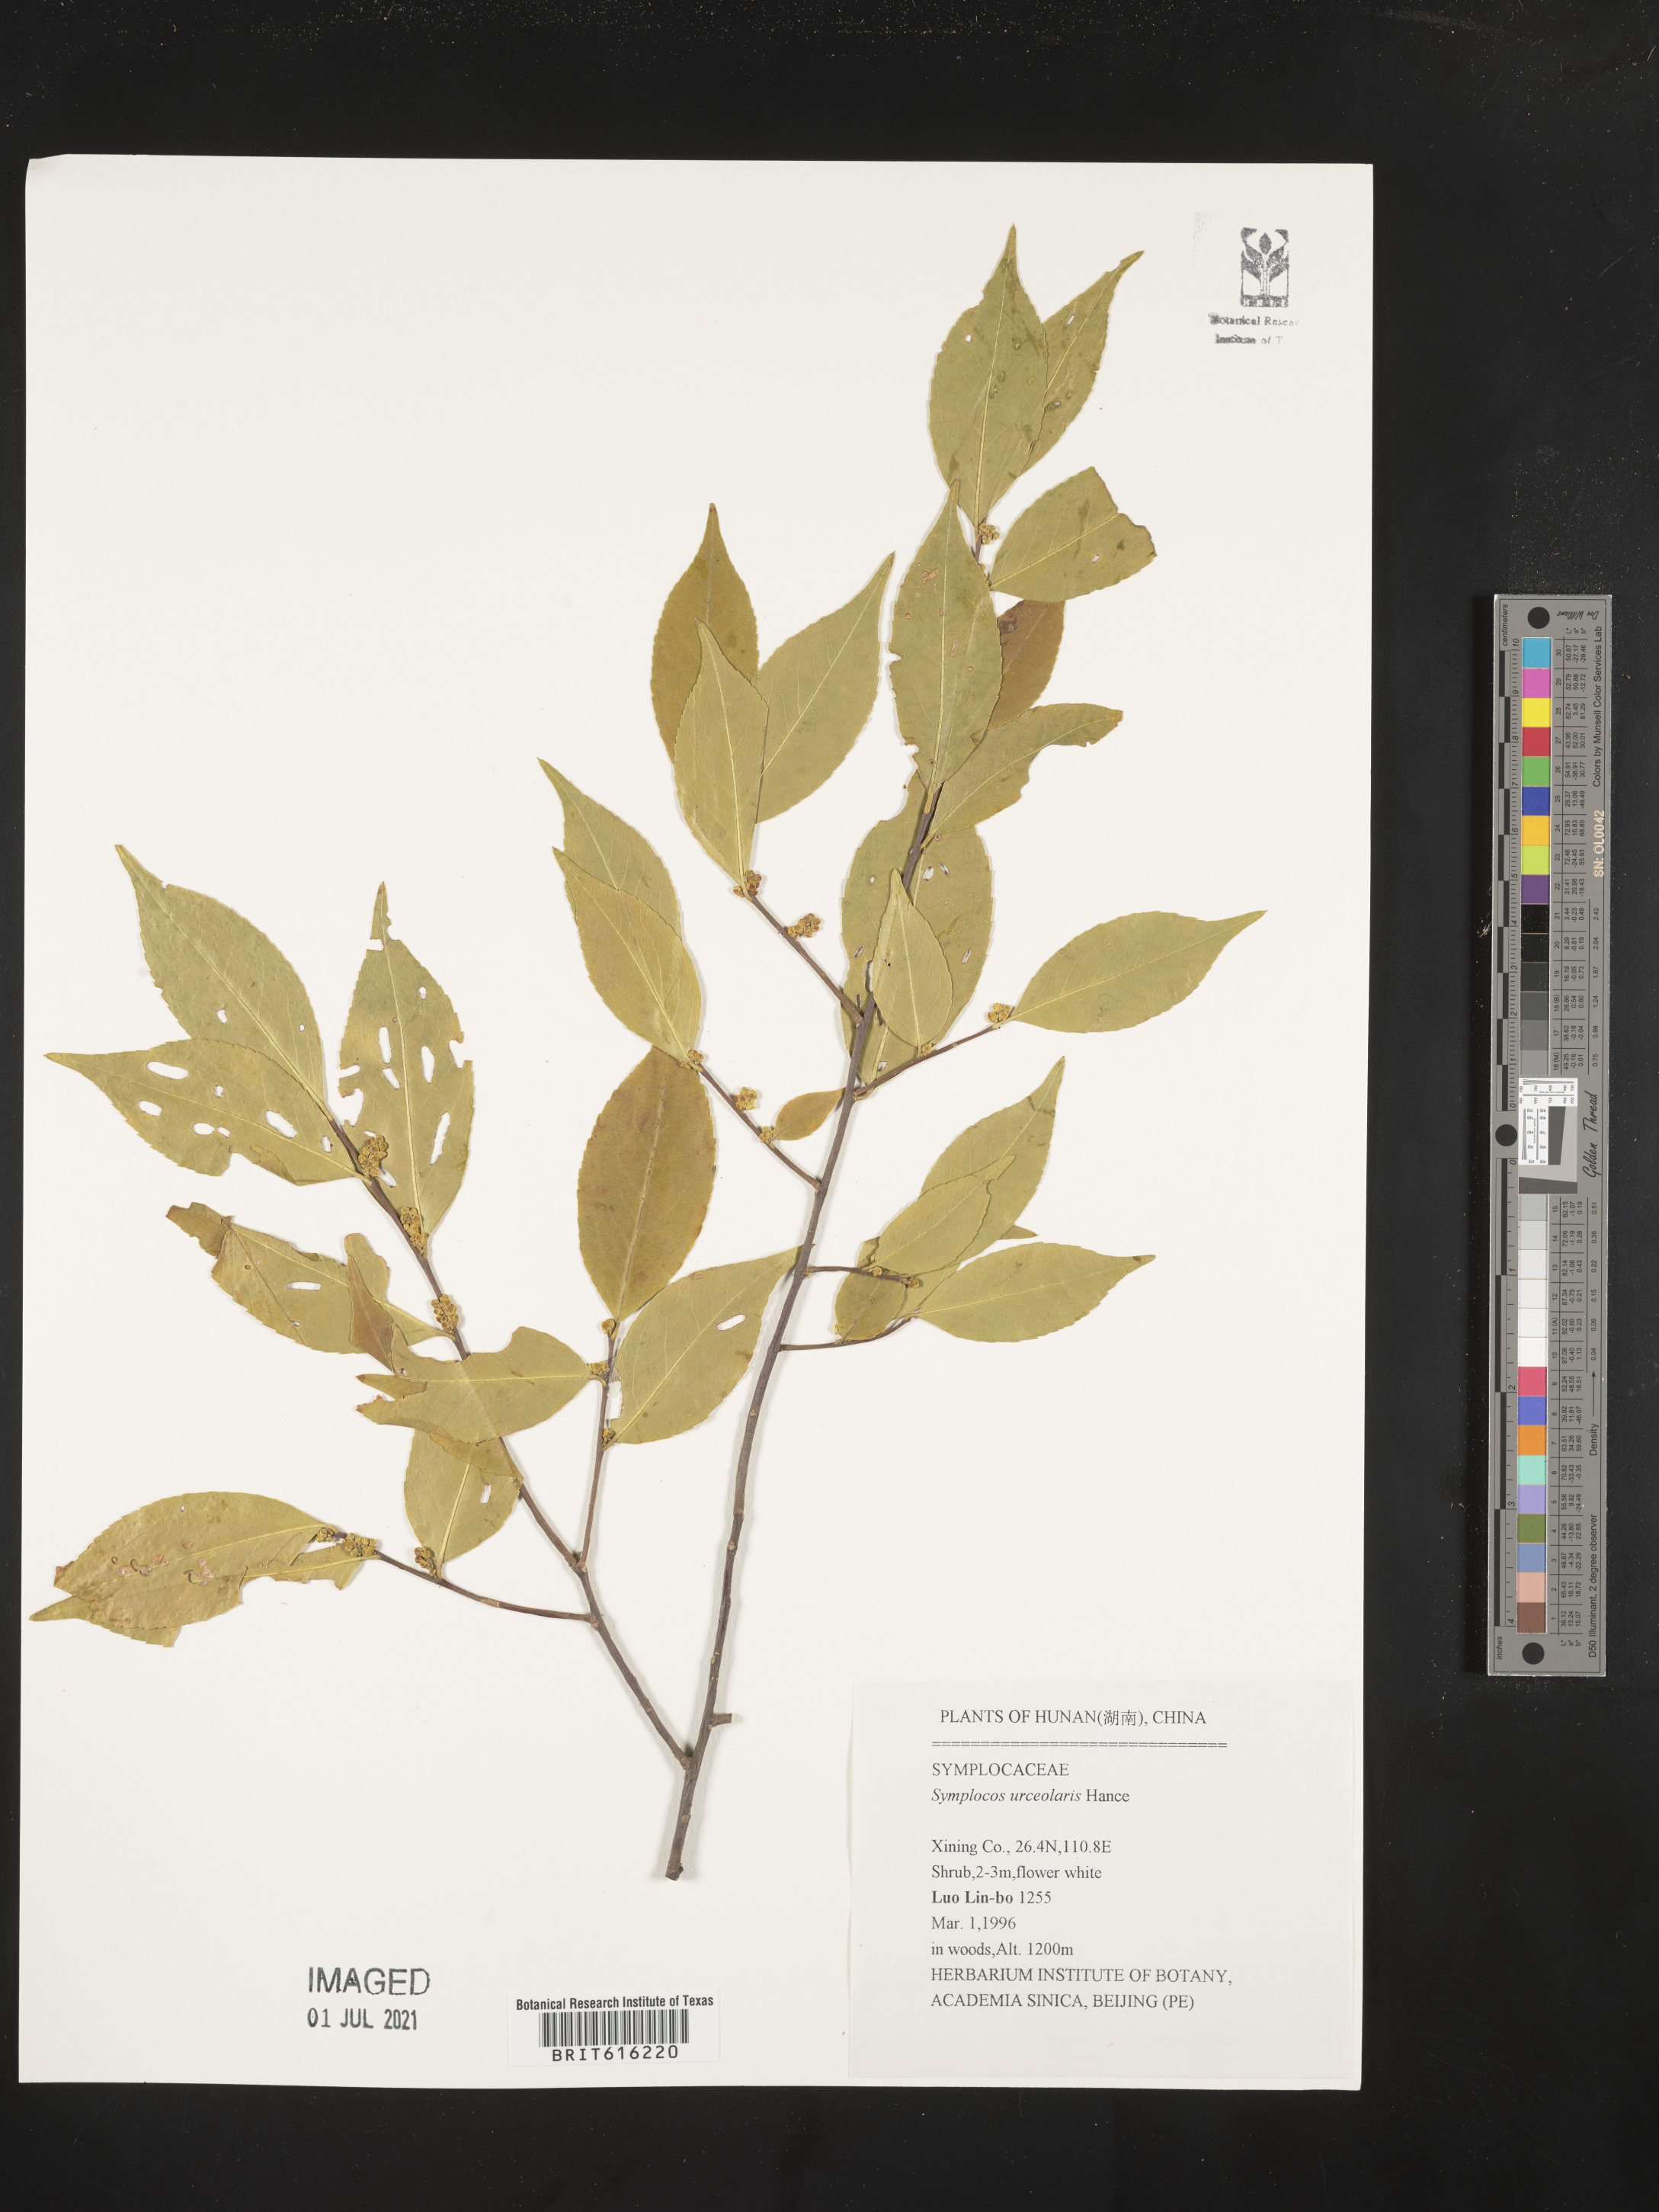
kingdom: Plantae
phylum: Tracheophyta
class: Magnoliopsida
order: Ericales
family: Symplocaceae
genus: Symplocos
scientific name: Symplocos sumuntia
